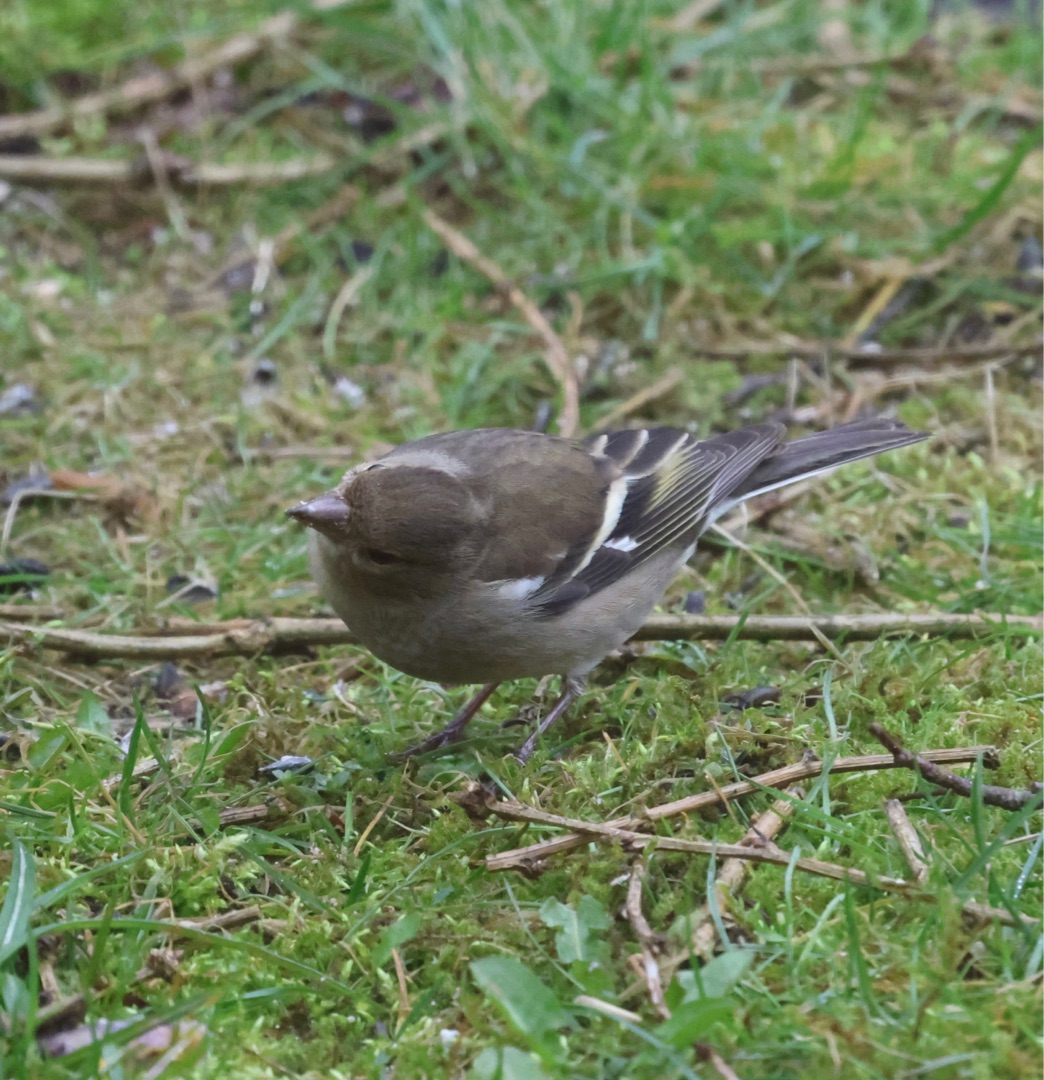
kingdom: Animalia
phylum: Chordata
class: Aves
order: Passeriformes
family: Fringillidae
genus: Fringilla
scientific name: Fringilla coelebs
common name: Bogfinke
